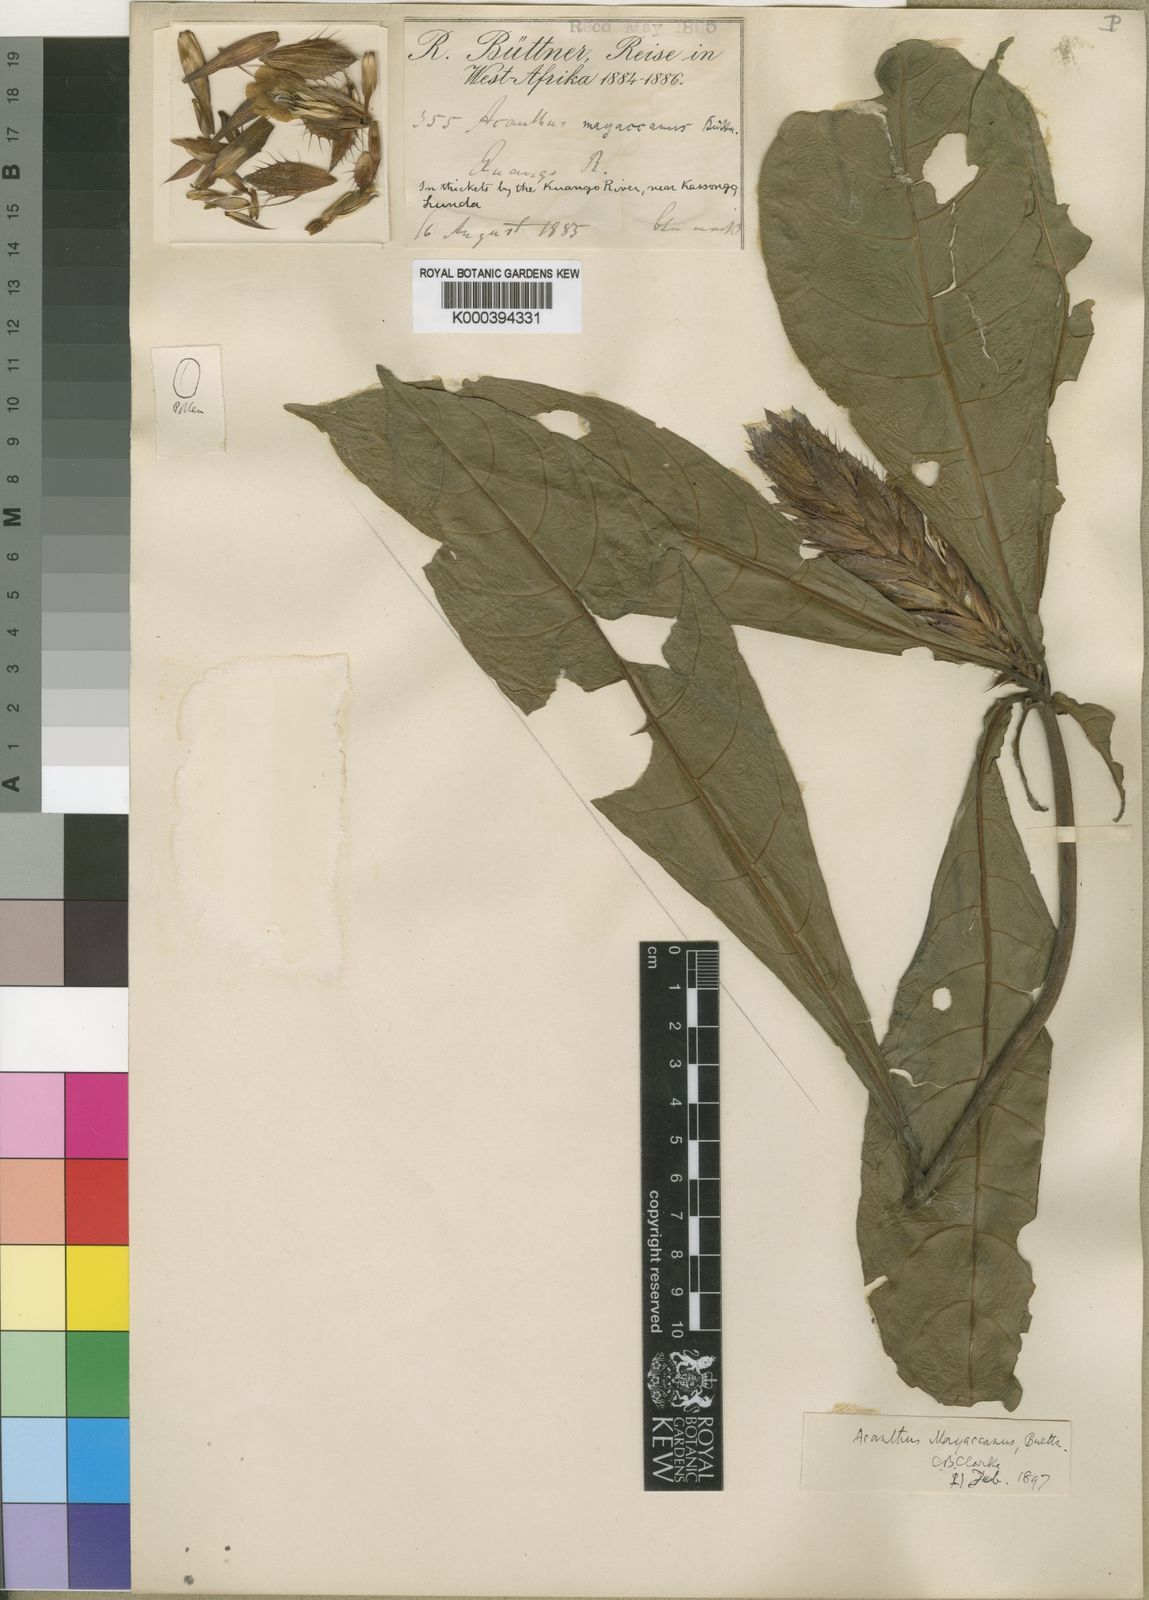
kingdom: Plantae
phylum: Tracheophyta
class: Magnoliopsida
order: Lamiales
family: Acanthaceae
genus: Acanthus
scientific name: Acanthus
